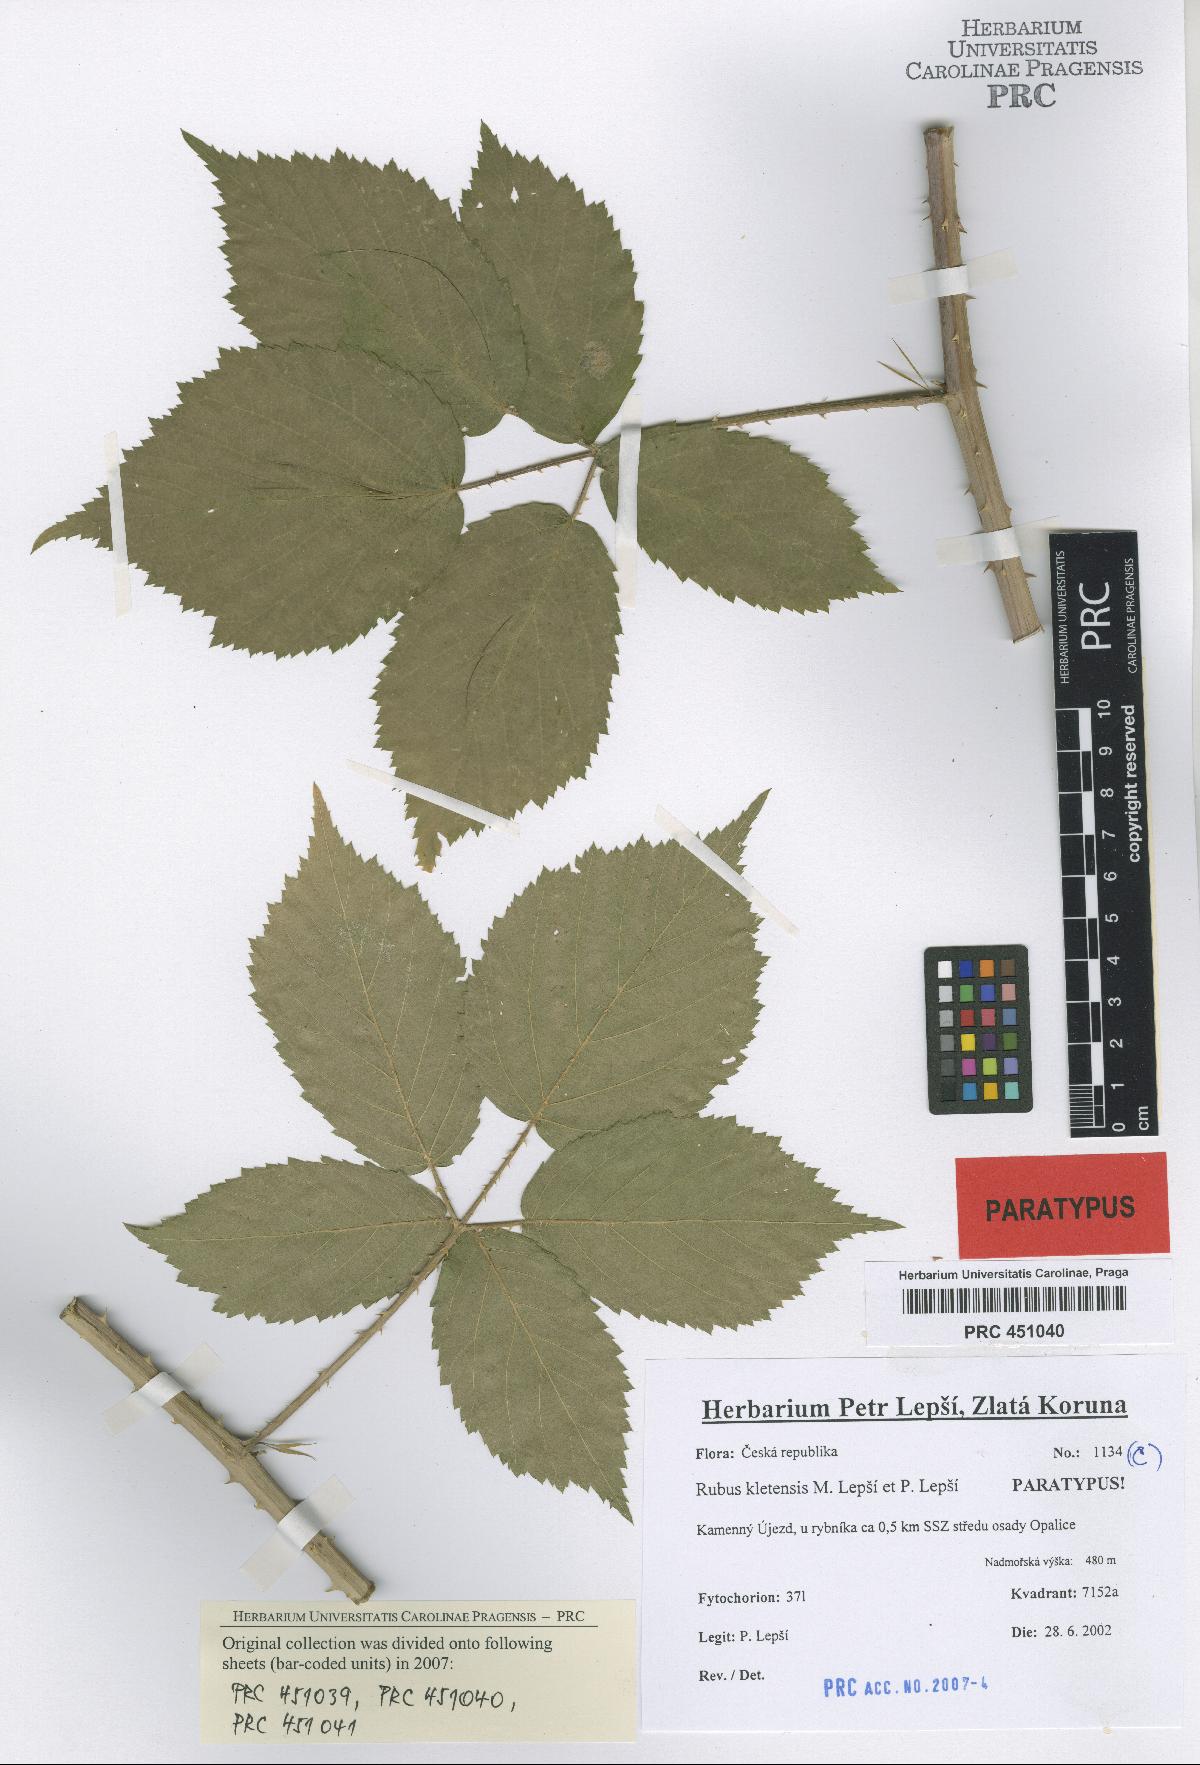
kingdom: Plantae
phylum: Tracheophyta
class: Magnoliopsida
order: Rosales
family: Rosaceae
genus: Rubus
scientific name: Rubus kletensis
